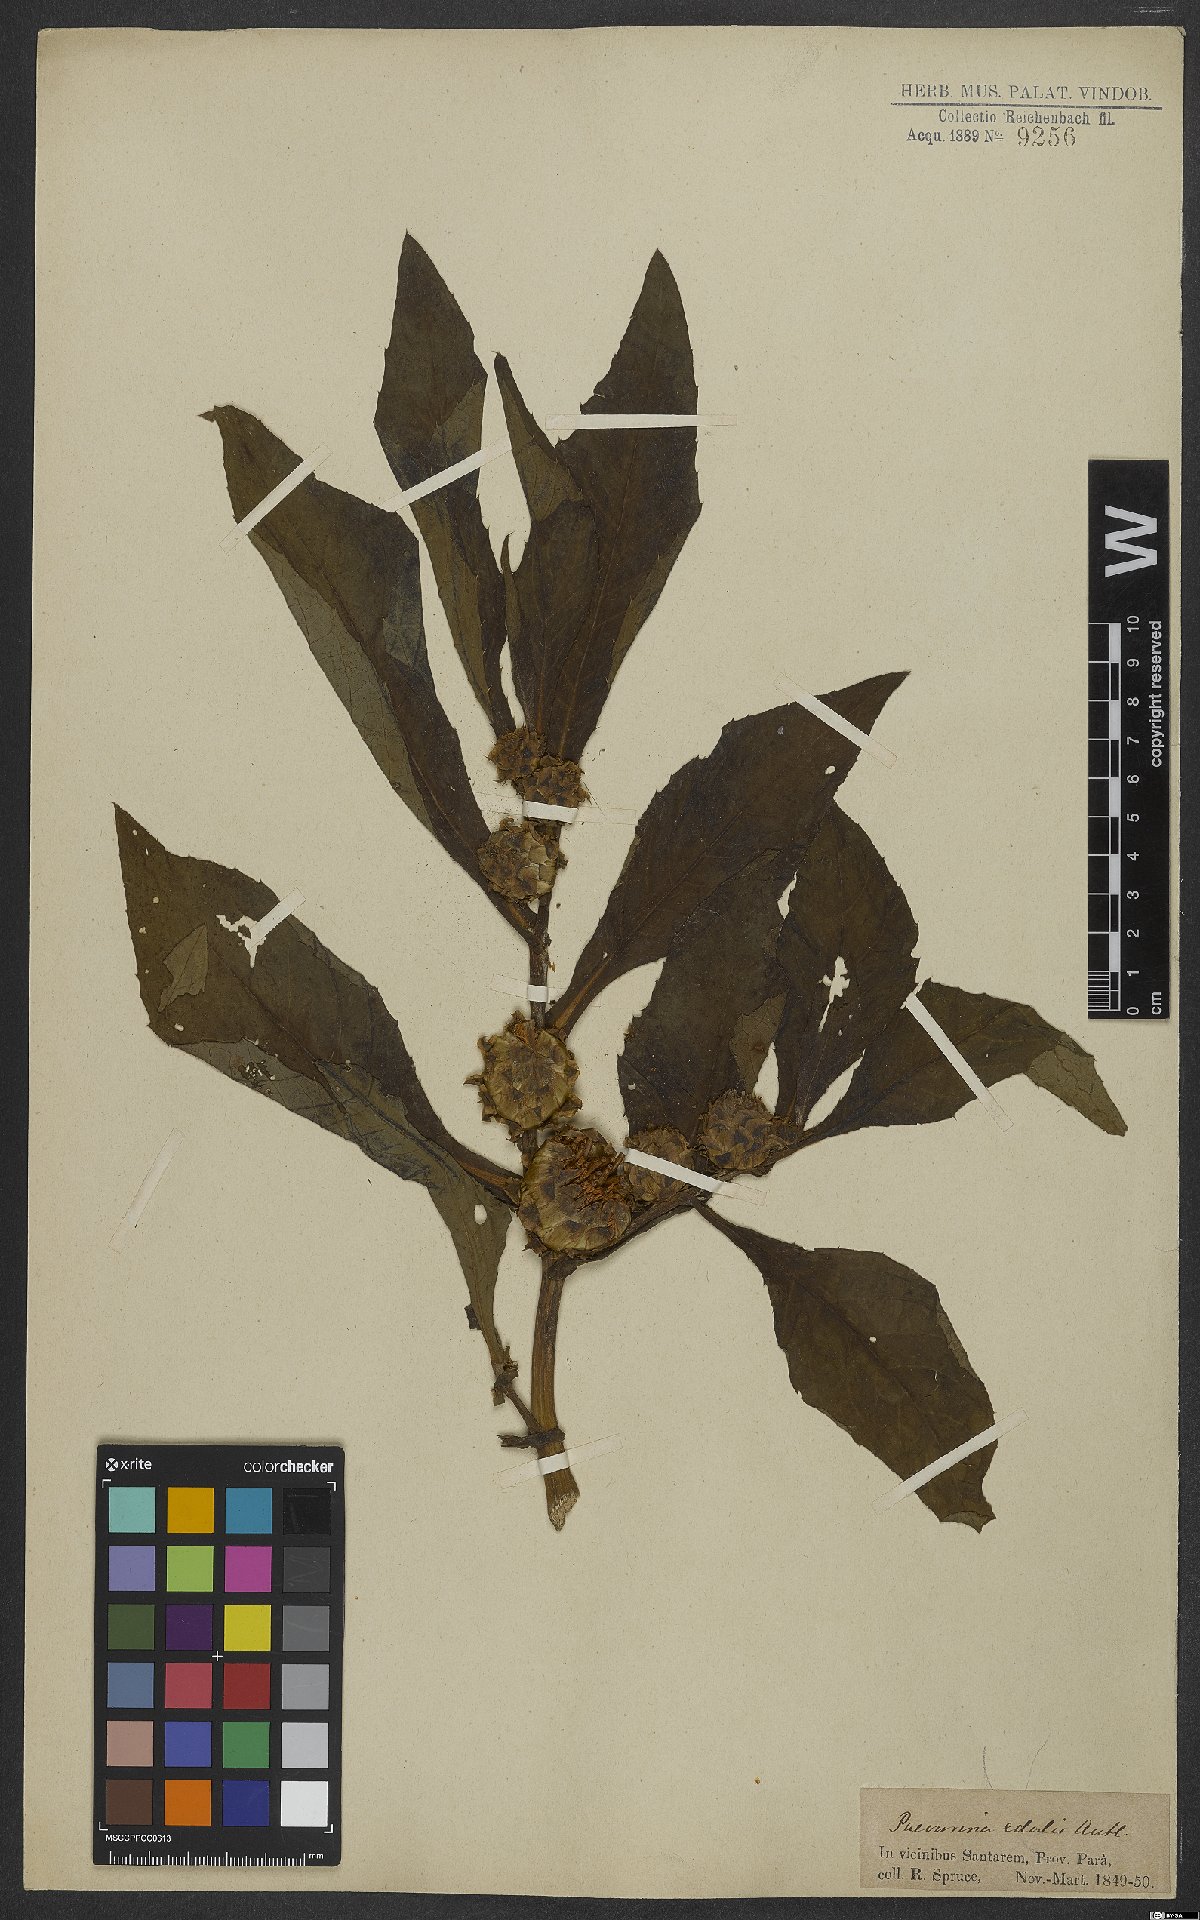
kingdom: Plantae
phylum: Tracheophyta
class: Magnoliopsida
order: Asterales
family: Asteraceae
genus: Pacourina
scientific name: Pacourina edulis
